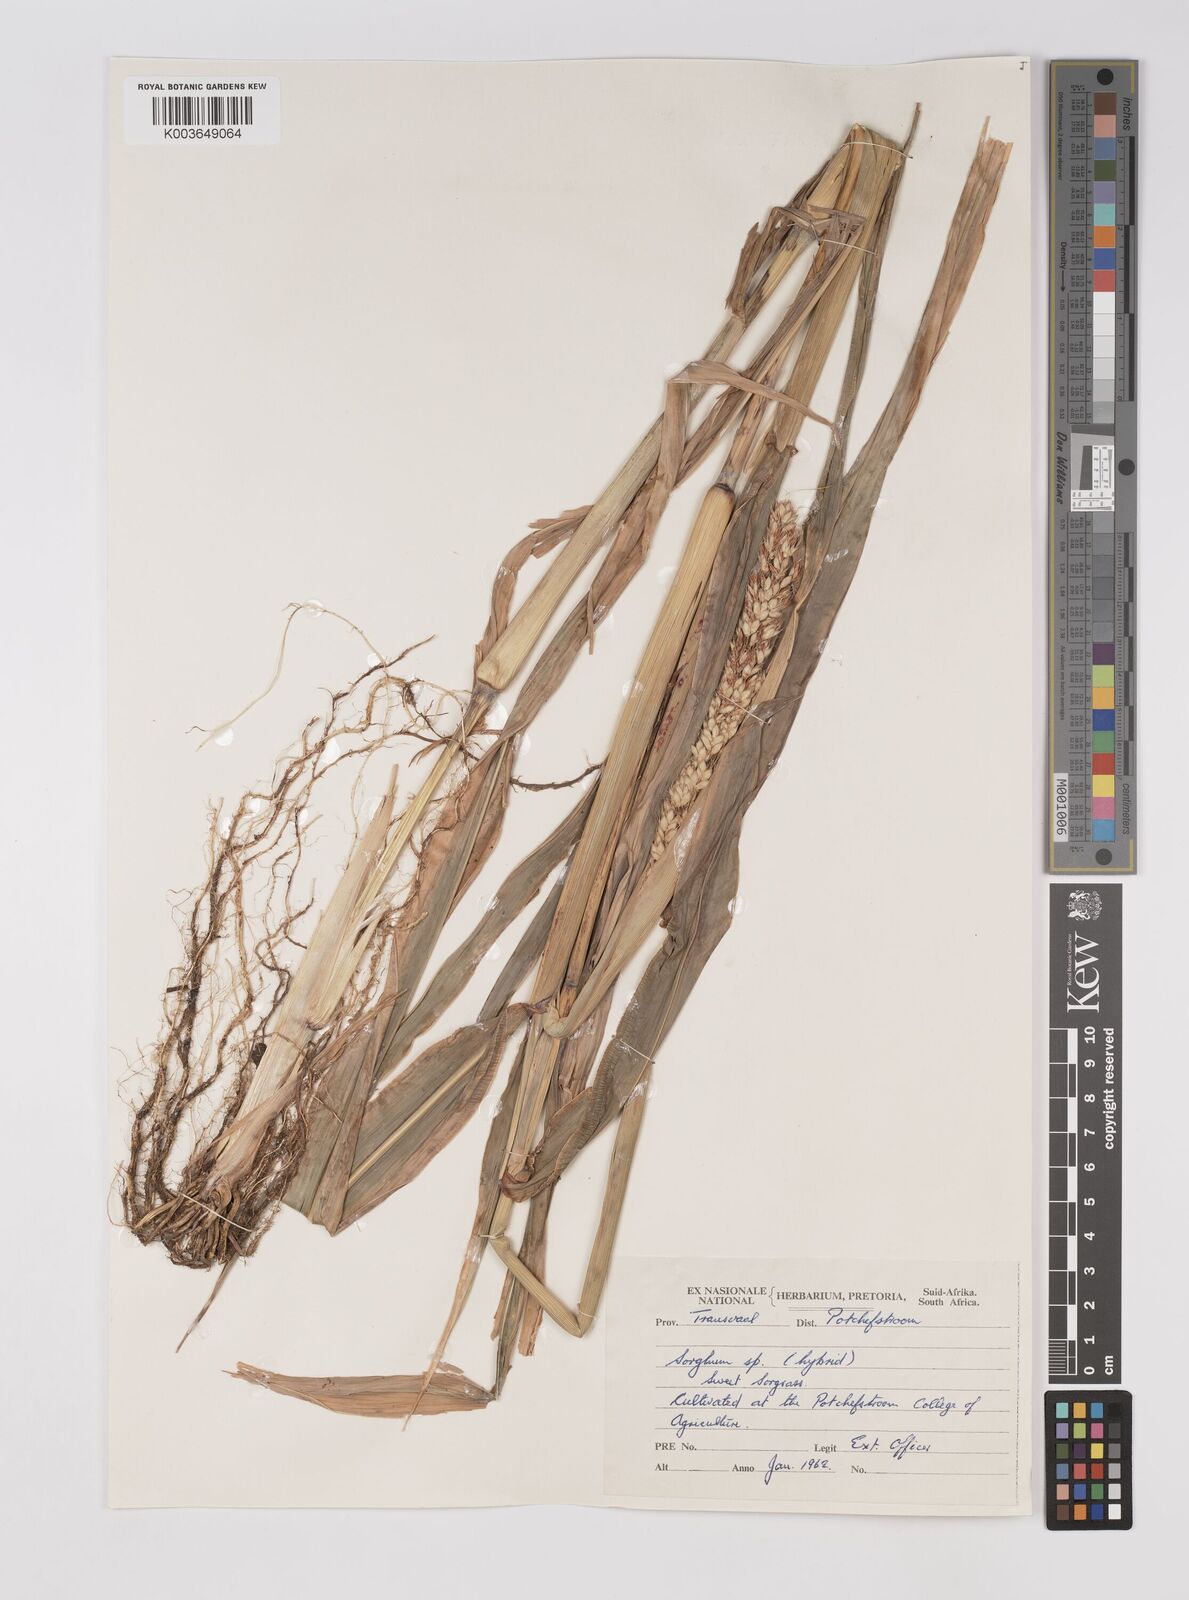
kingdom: Plantae
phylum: Tracheophyta
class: Liliopsida
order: Poales
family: Poaceae
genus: Sorghum
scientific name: Sorghum drummondii
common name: Sudangrass
